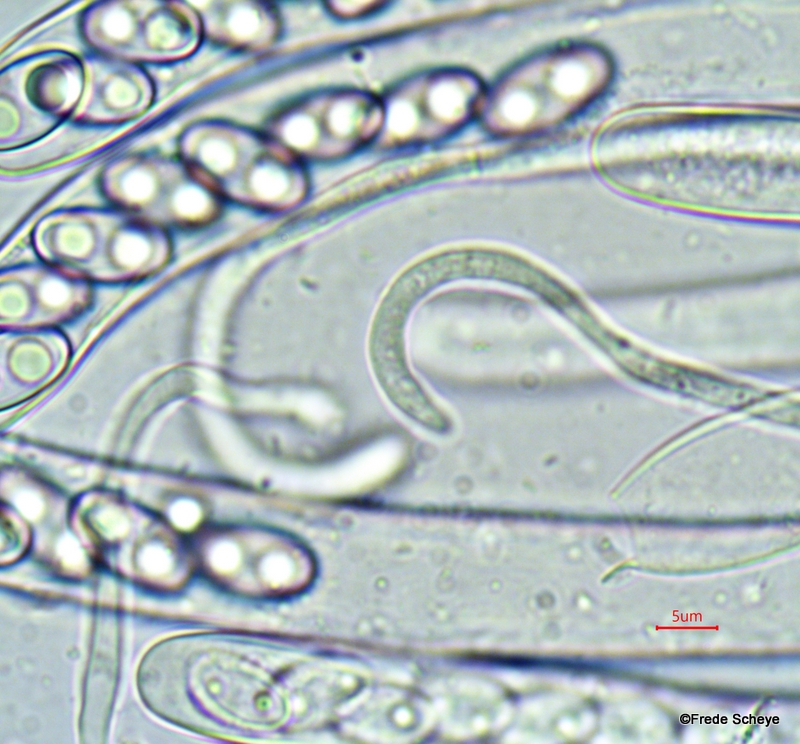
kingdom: Fungi
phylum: Ascomycota
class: Pezizomycetes
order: Pezizales
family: Otideaceae
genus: Otidea
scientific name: Otidea onotica
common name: æsel-ørebæger
